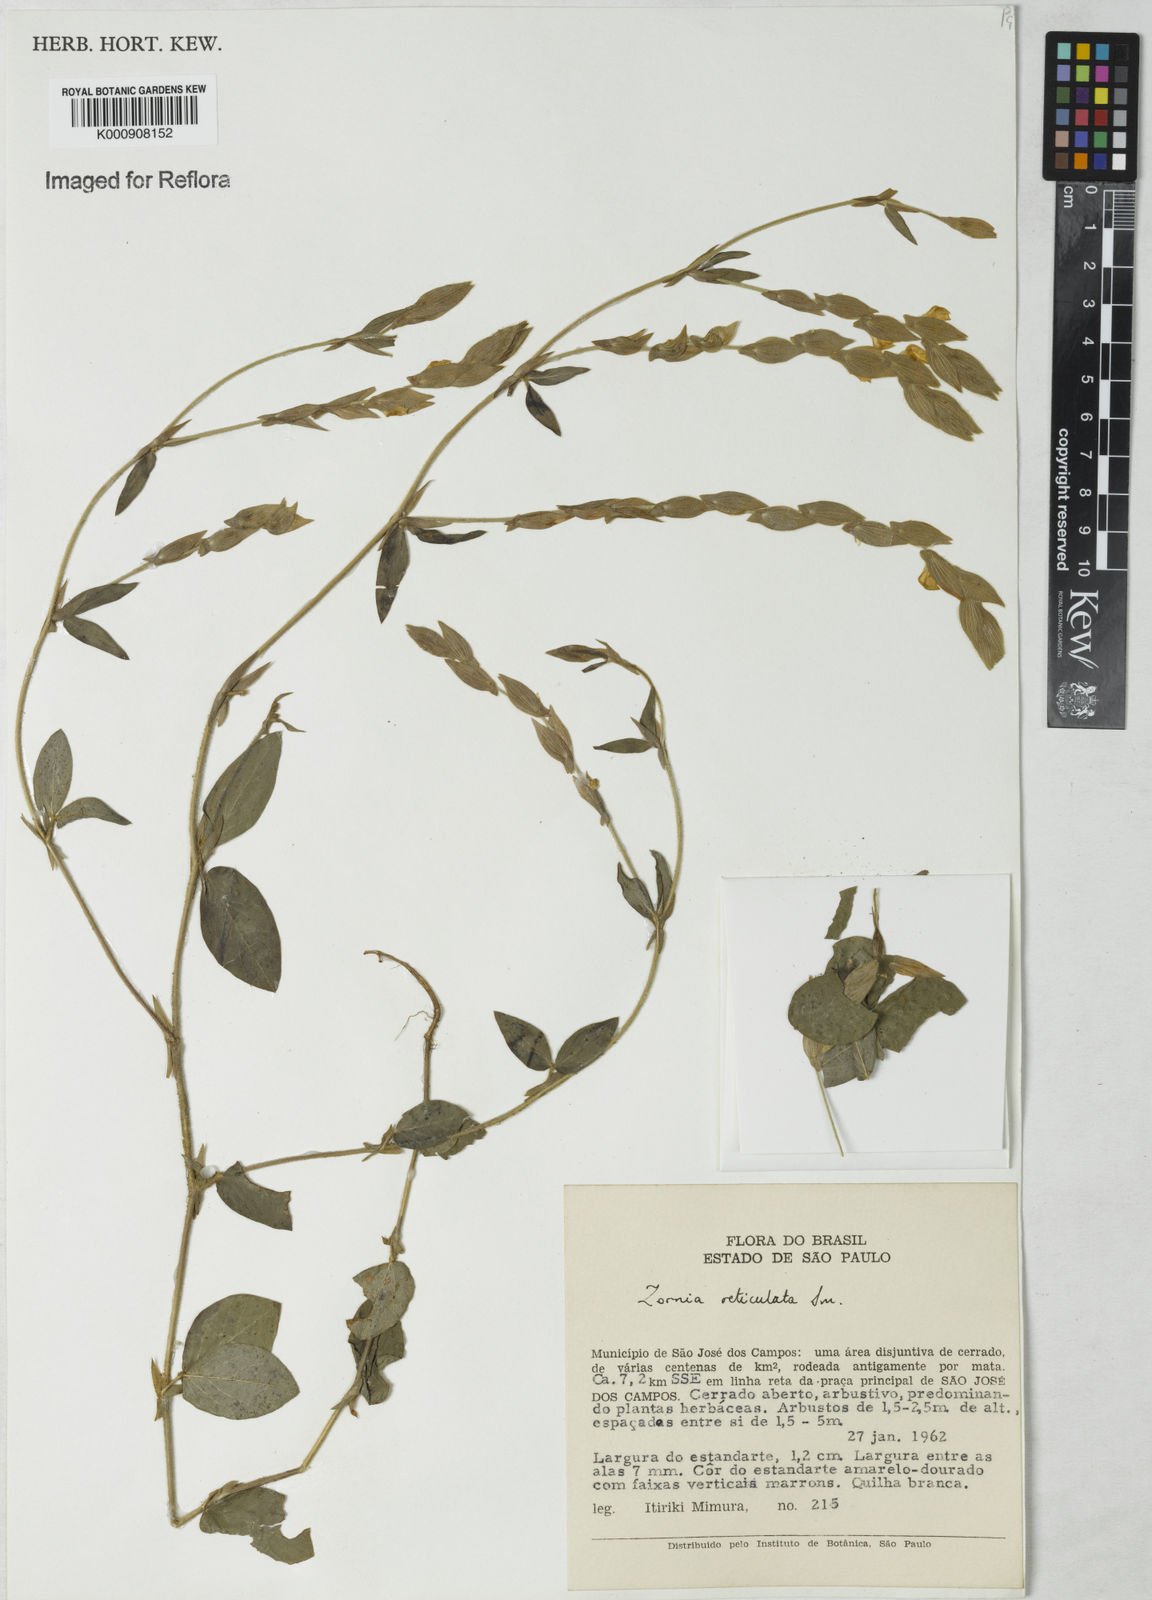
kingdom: Plantae
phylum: Tracheophyta
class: Magnoliopsida
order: Fabales
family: Fabaceae
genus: Zornia
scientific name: Zornia reticulata
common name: Reticulate viperina
